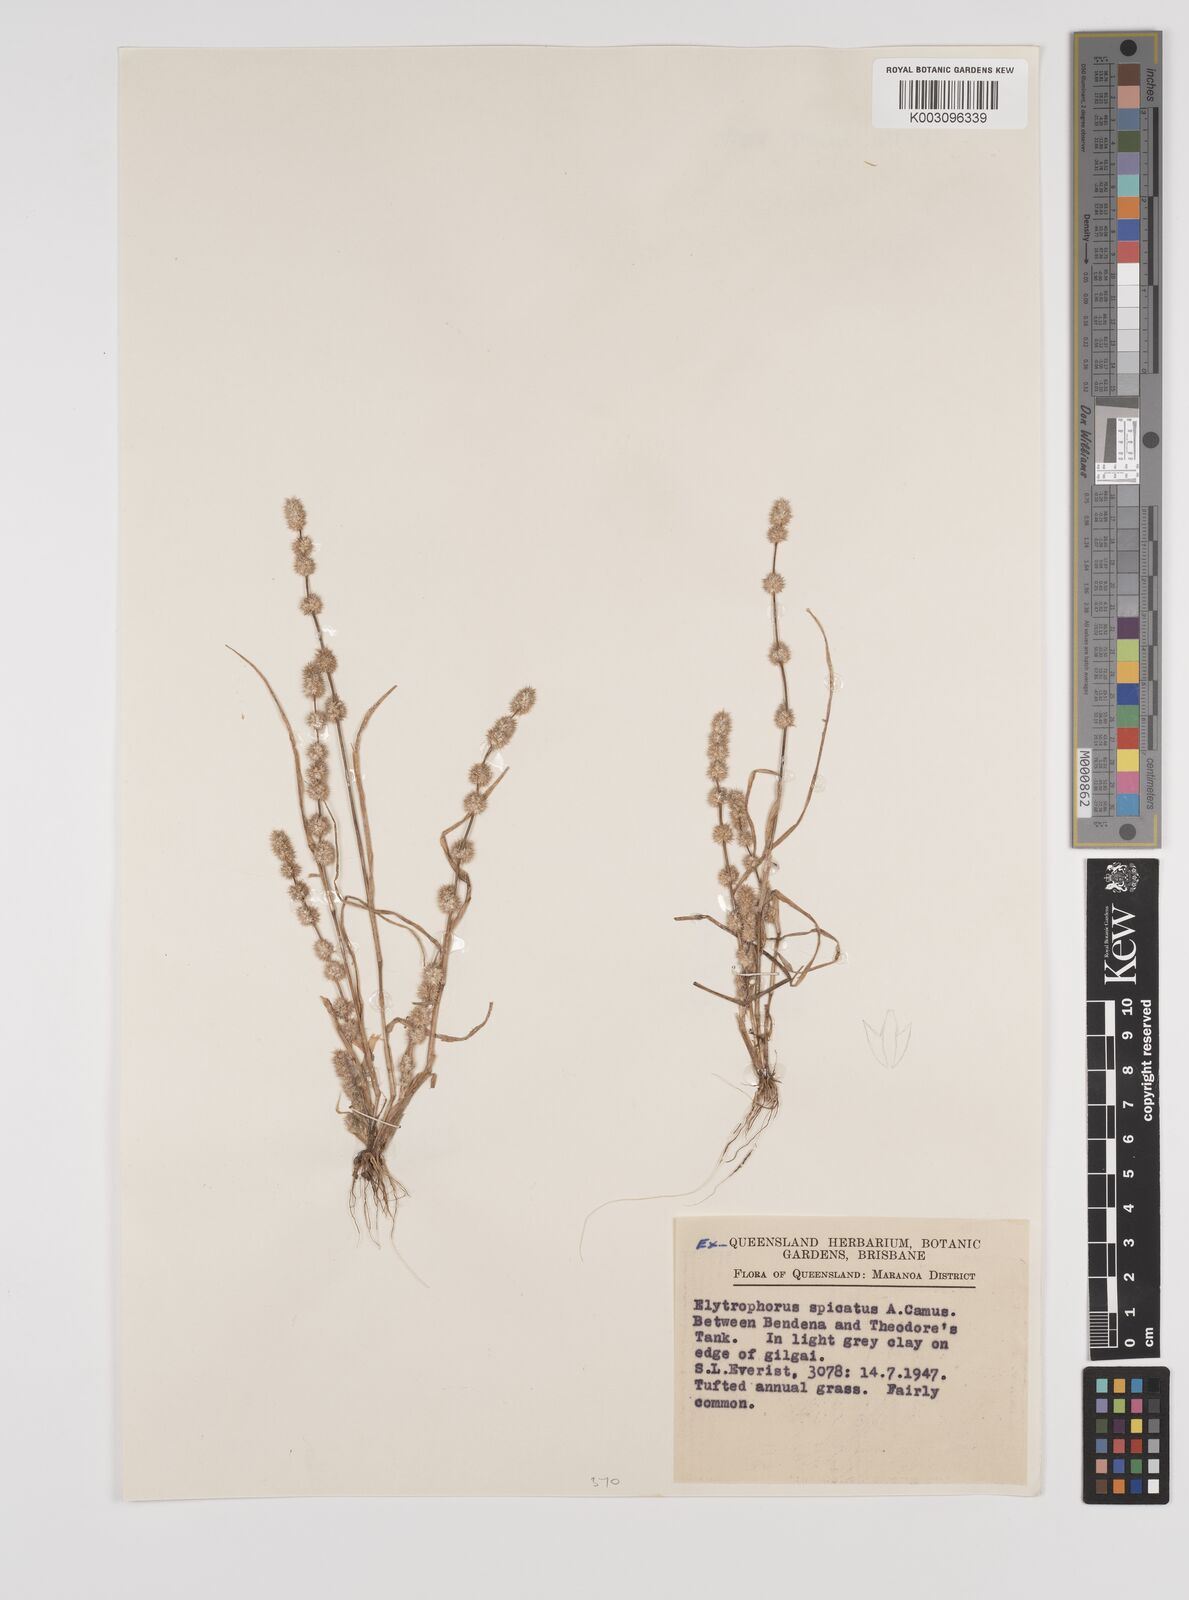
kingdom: Plantae
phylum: Tracheophyta
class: Liliopsida
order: Poales
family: Poaceae
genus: Elytrophorus
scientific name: Elytrophorus spicatus
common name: Spike grass
